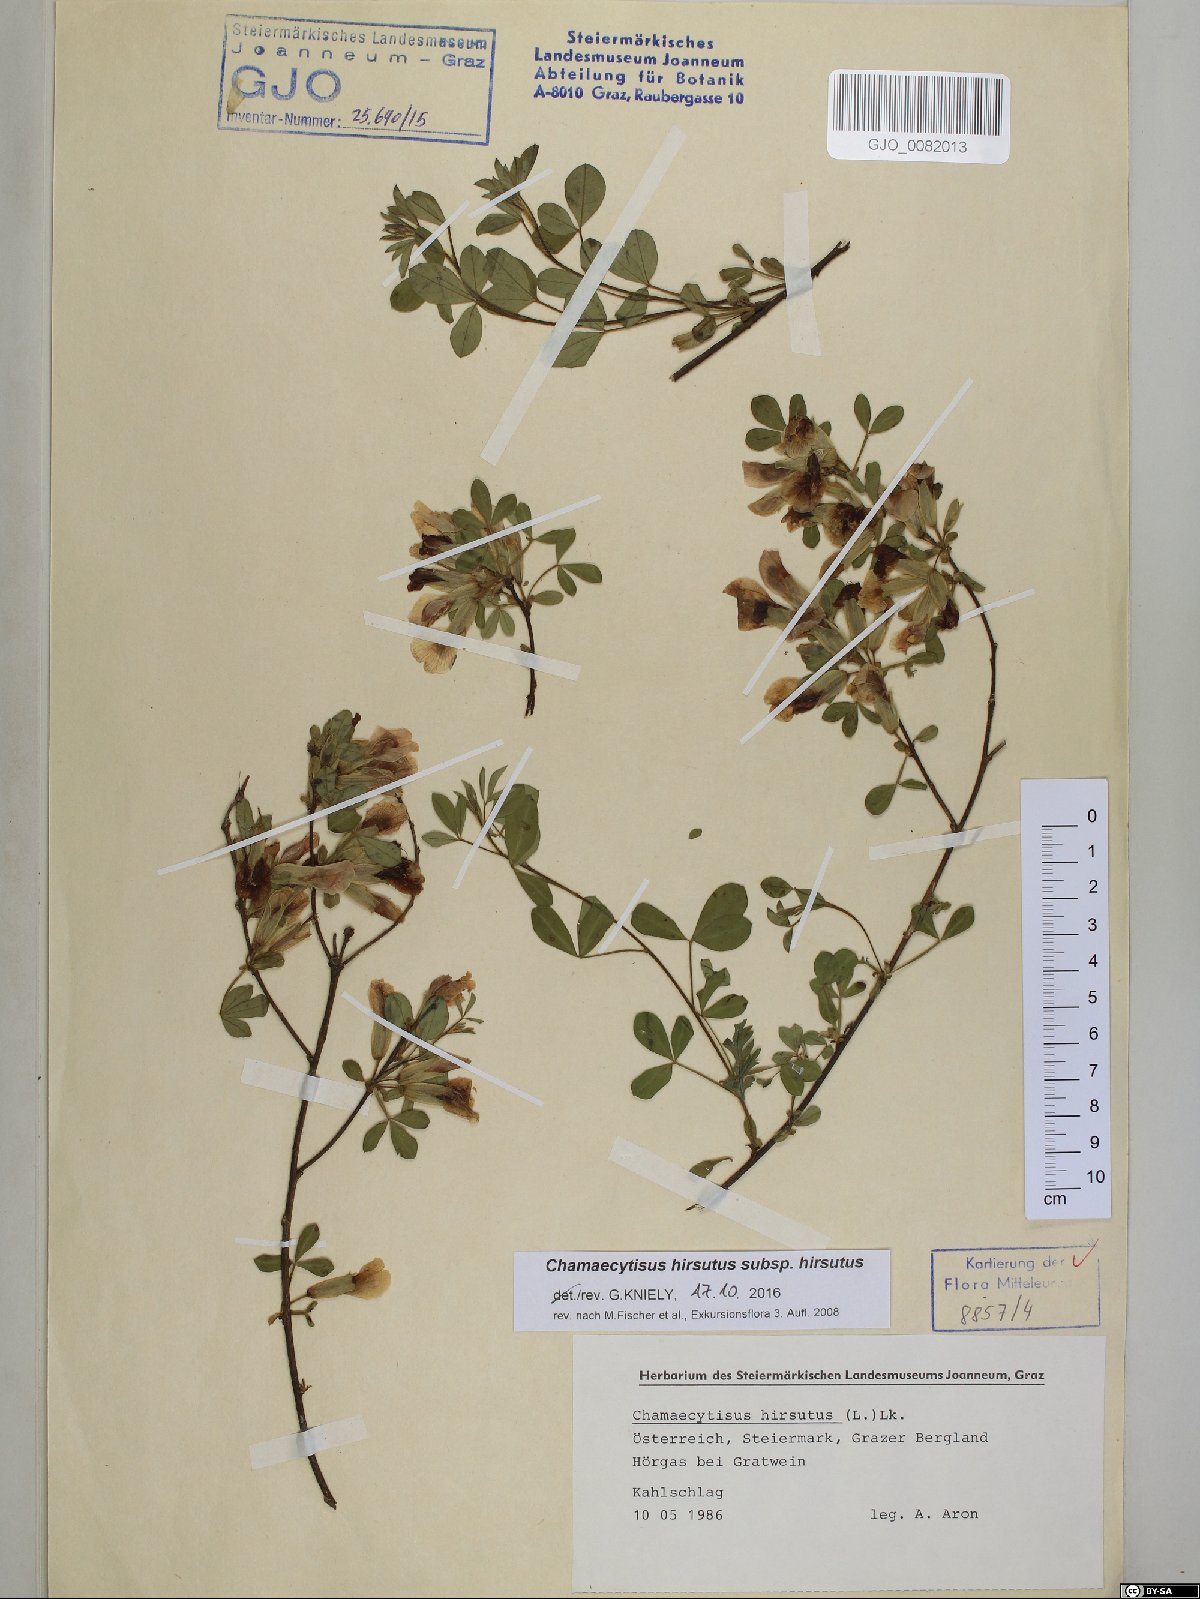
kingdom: Plantae
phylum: Tracheophyta
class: Magnoliopsida
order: Fabales
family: Fabaceae
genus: Chamaecytisus
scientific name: Chamaecytisus hirsutus
